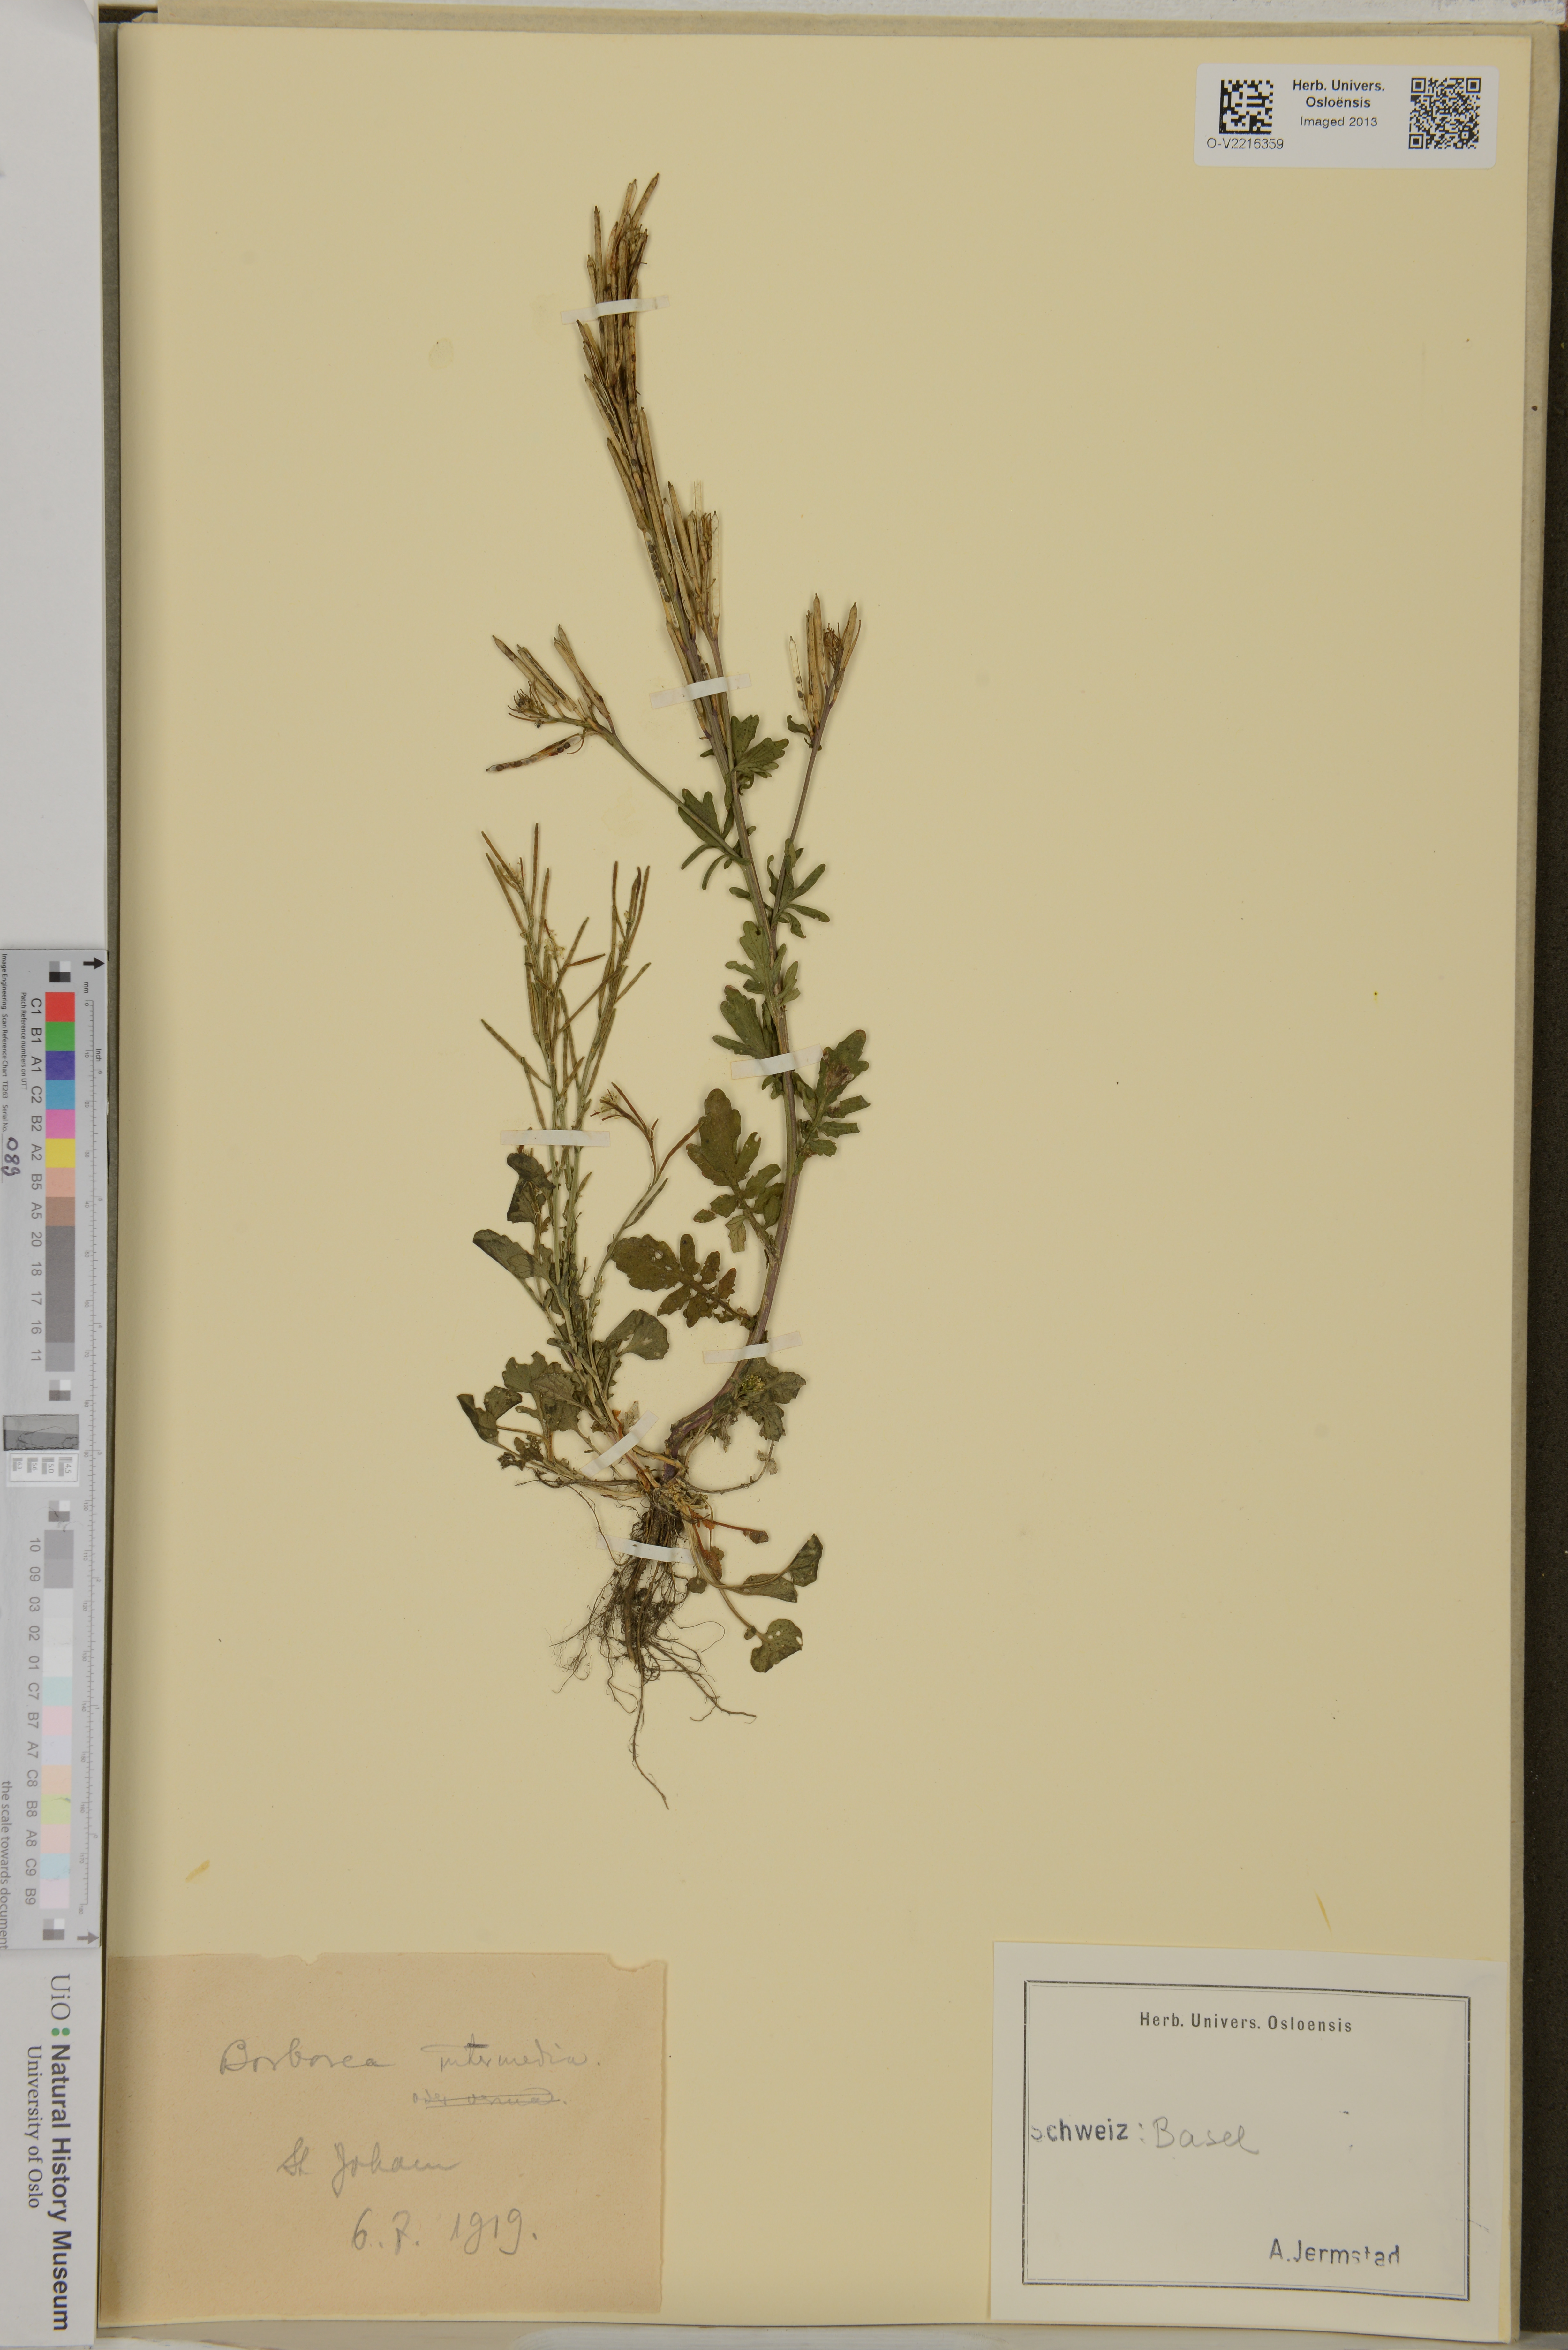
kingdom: Plantae
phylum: Tracheophyta
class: Magnoliopsida
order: Brassicales
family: Brassicaceae
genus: Barbarea
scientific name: Barbarea intermedia
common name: Medium-flowered winter-cress
